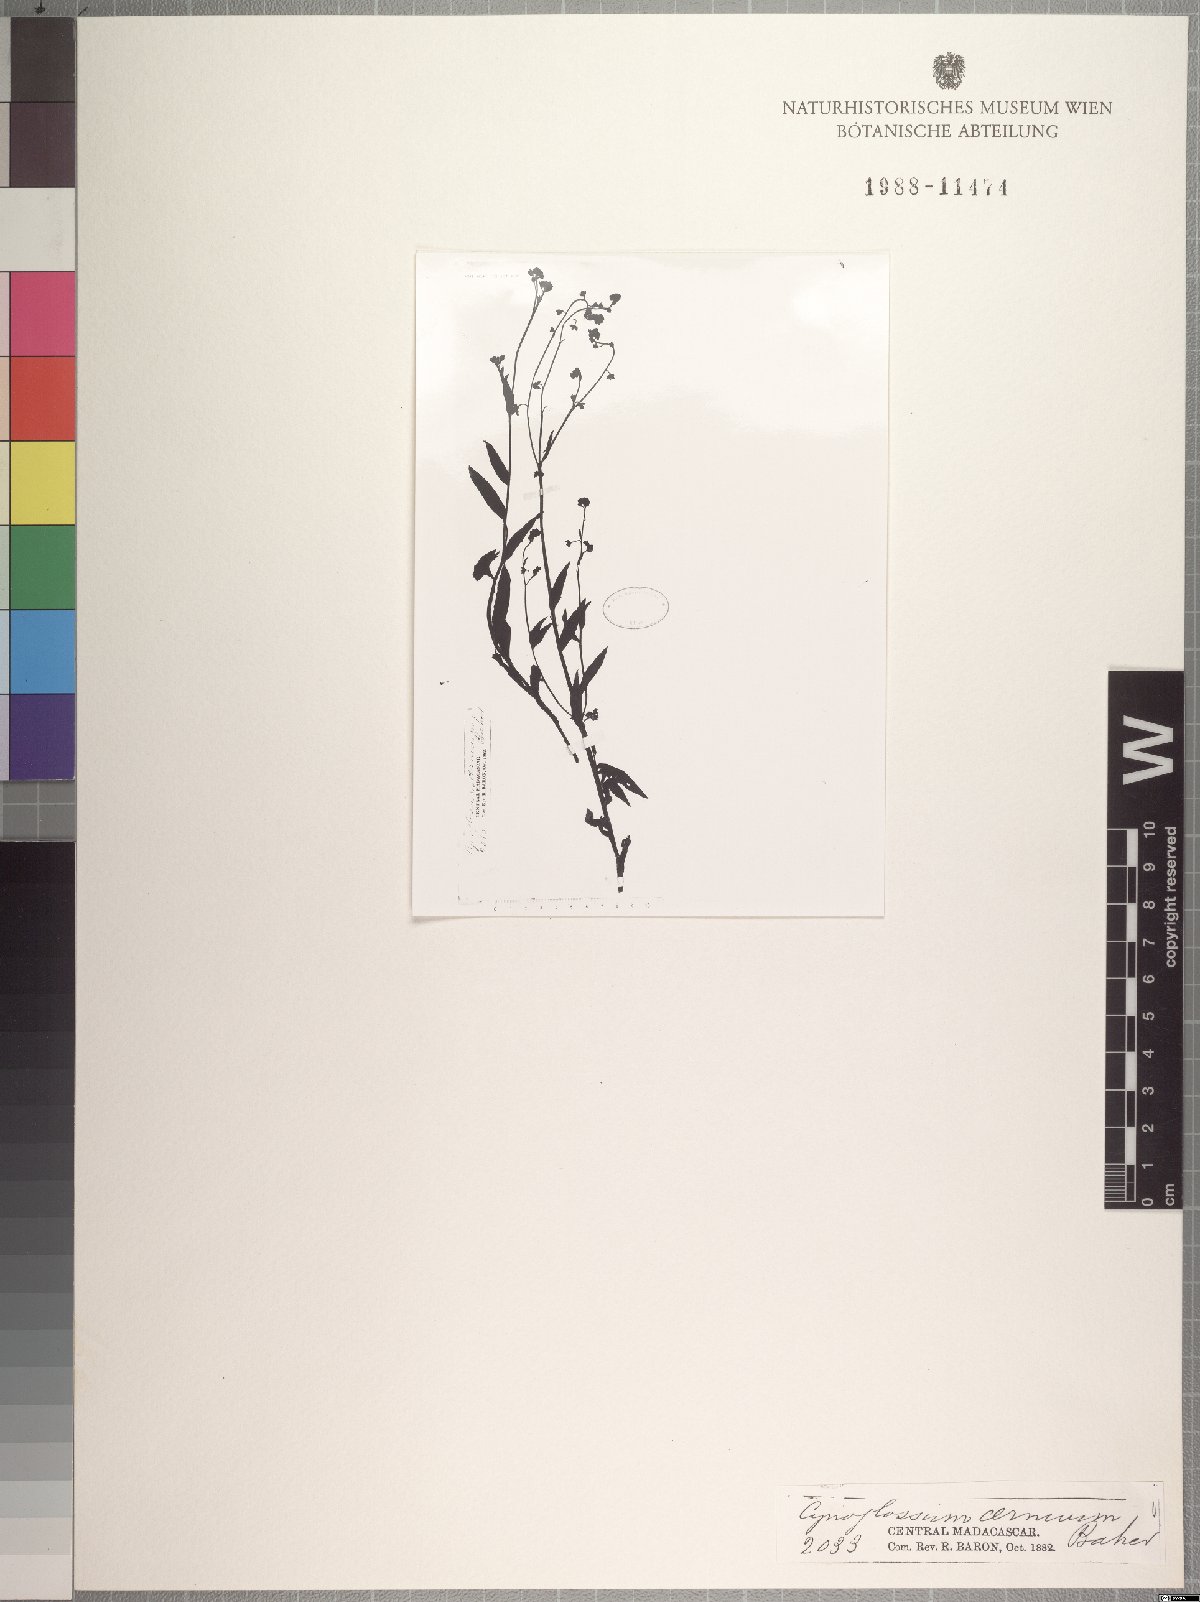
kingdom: Plantae
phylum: Tracheophyta
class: Magnoliopsida
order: Boraginales
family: Boraginaceae
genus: Cynoglossum
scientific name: Cynoglossum cernuum
